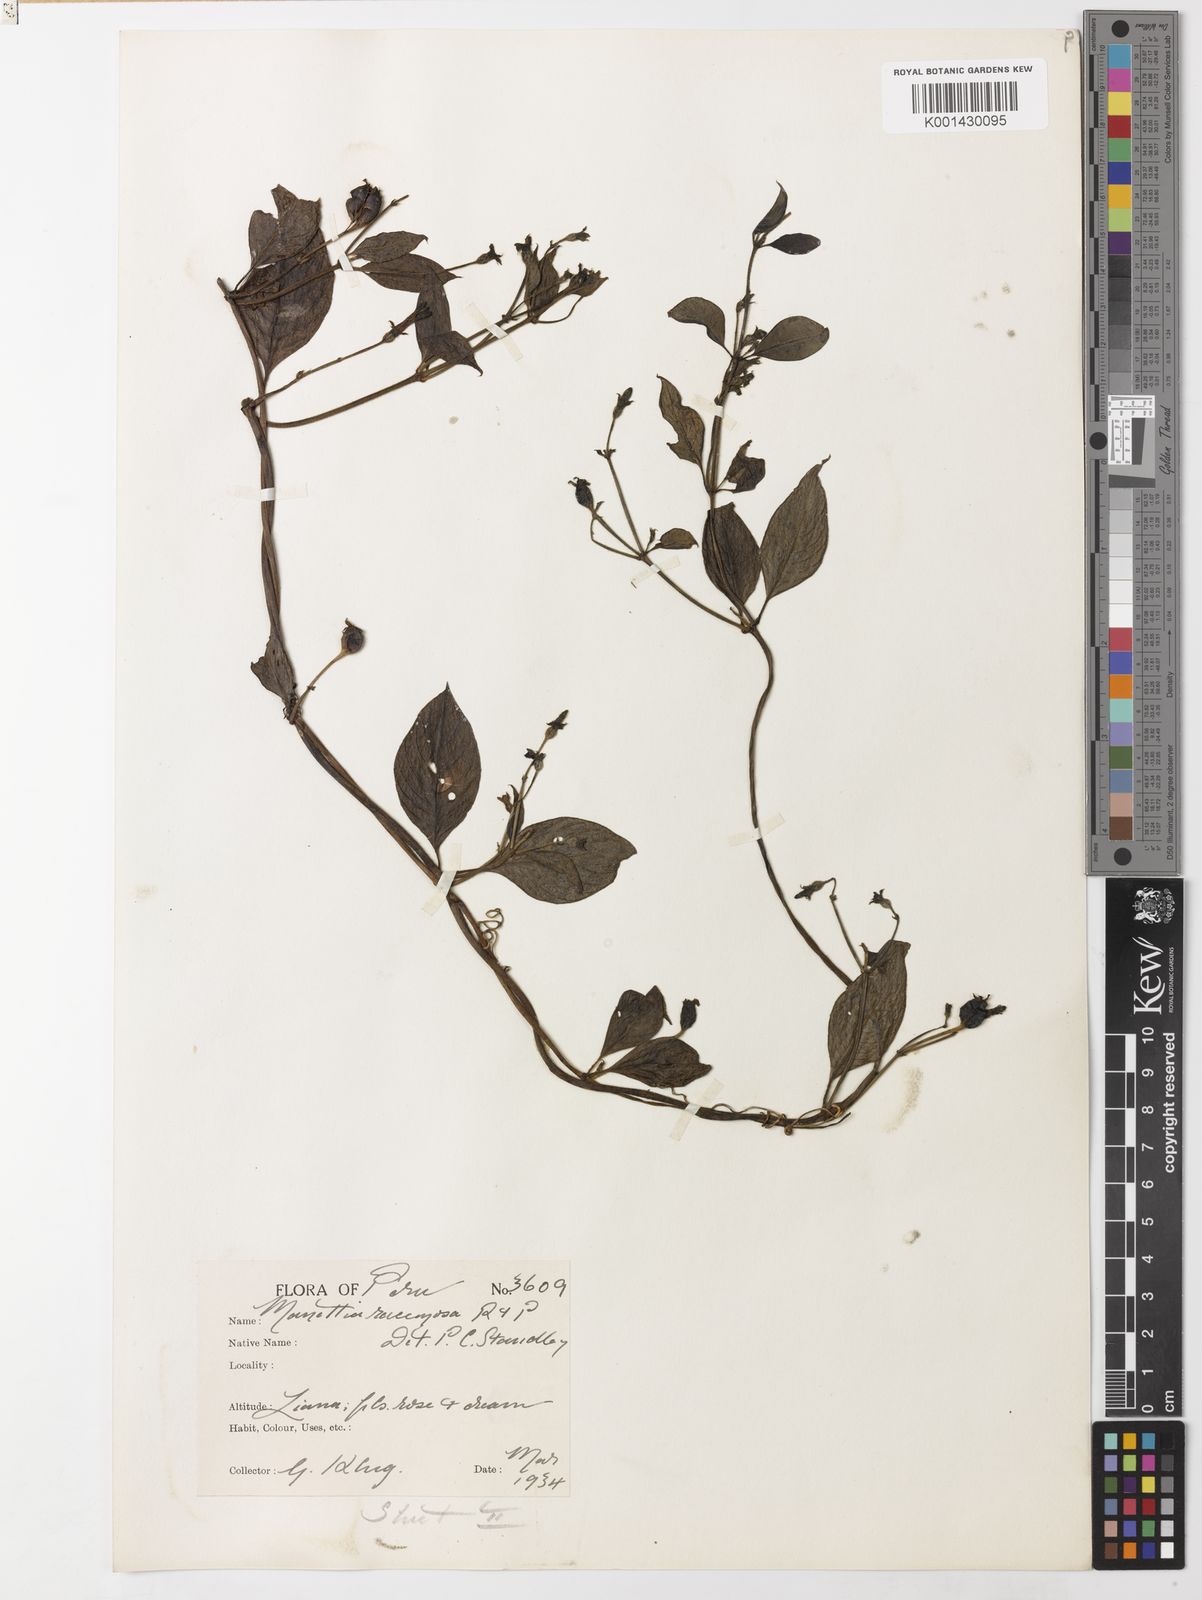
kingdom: Plantae
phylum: Tracheophyta
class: Magnoliopsida
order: Gentianales
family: Rubiaceae
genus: Manettia
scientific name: Manettia racemosa
